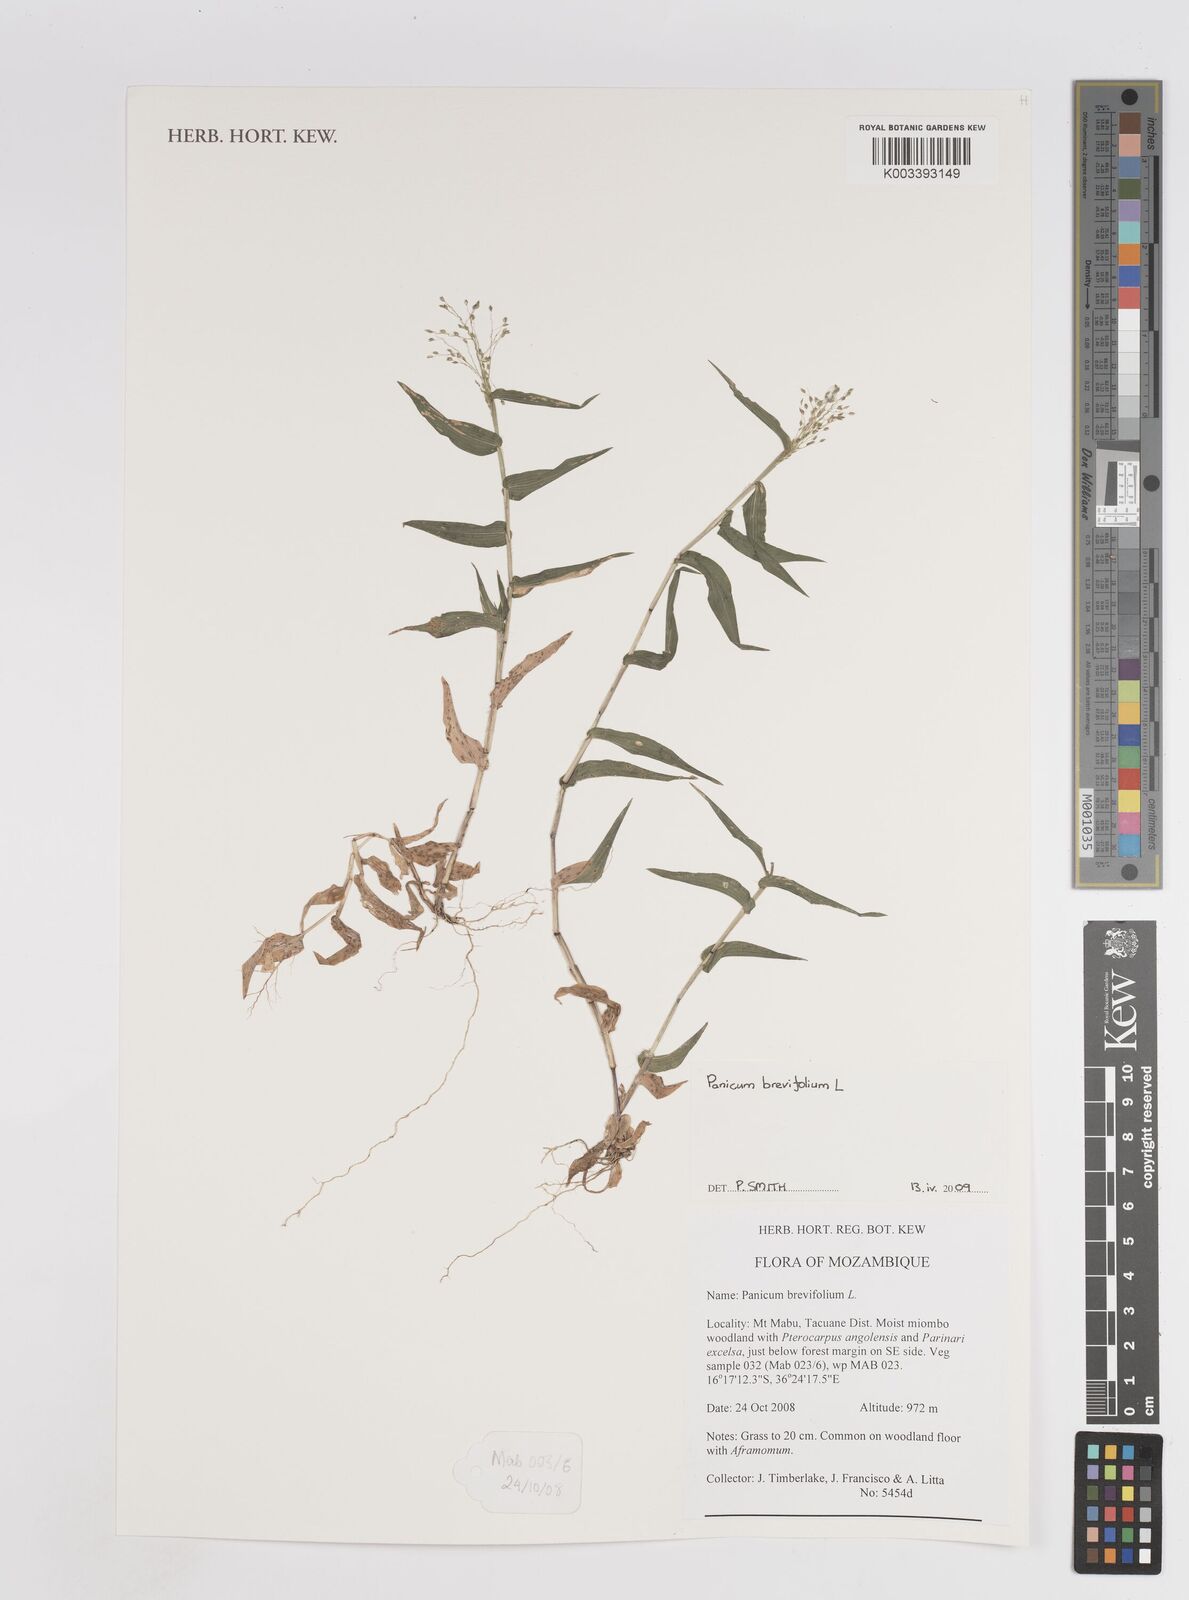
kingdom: Plantae
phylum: Tracheophyta
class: Liliopsida
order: Poales
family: Poaceae
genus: Panicum
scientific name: Panicum brevifolium
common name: Shortleaf panic grass
